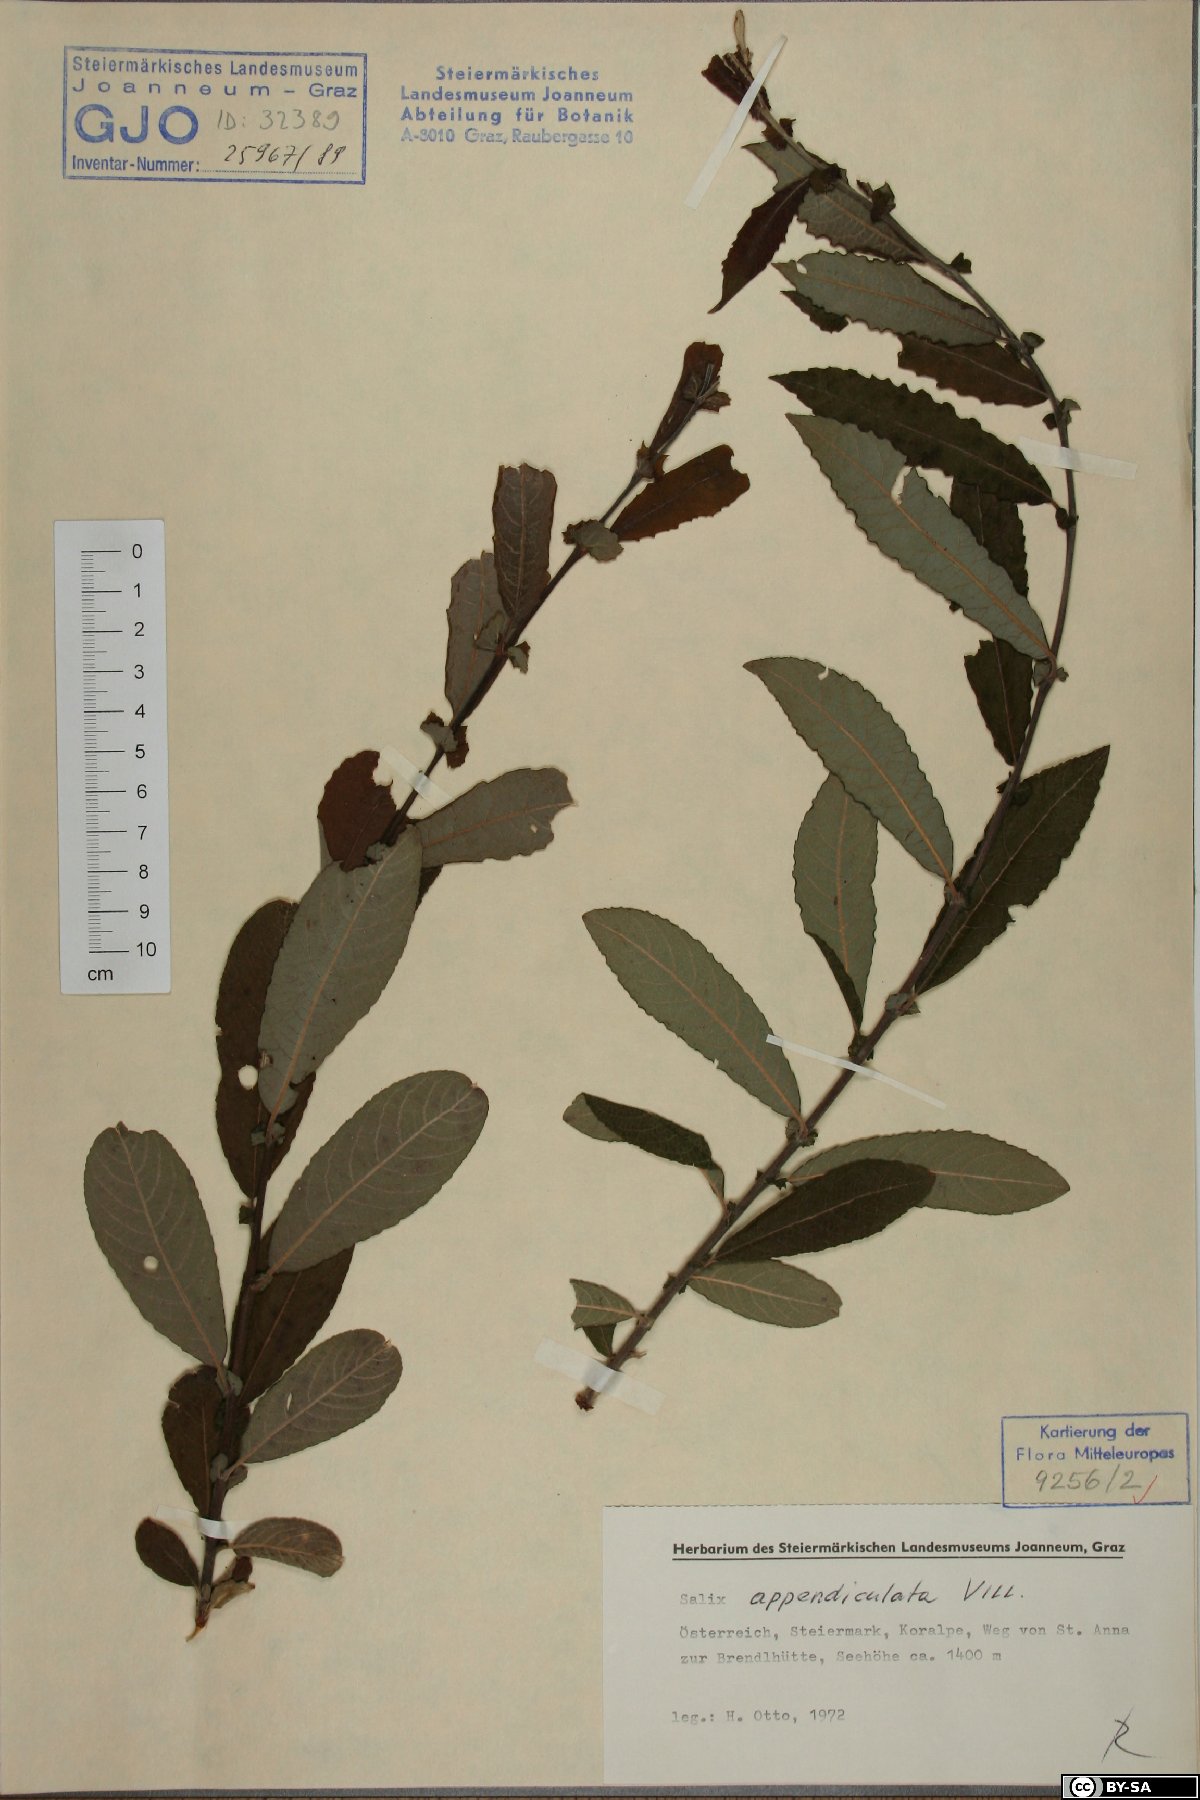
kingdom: Plantae
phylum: Tracheophyta
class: Magnoliopsida
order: Malpighiales
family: Salicaceae
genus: Salix
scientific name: Salix appendiculata
